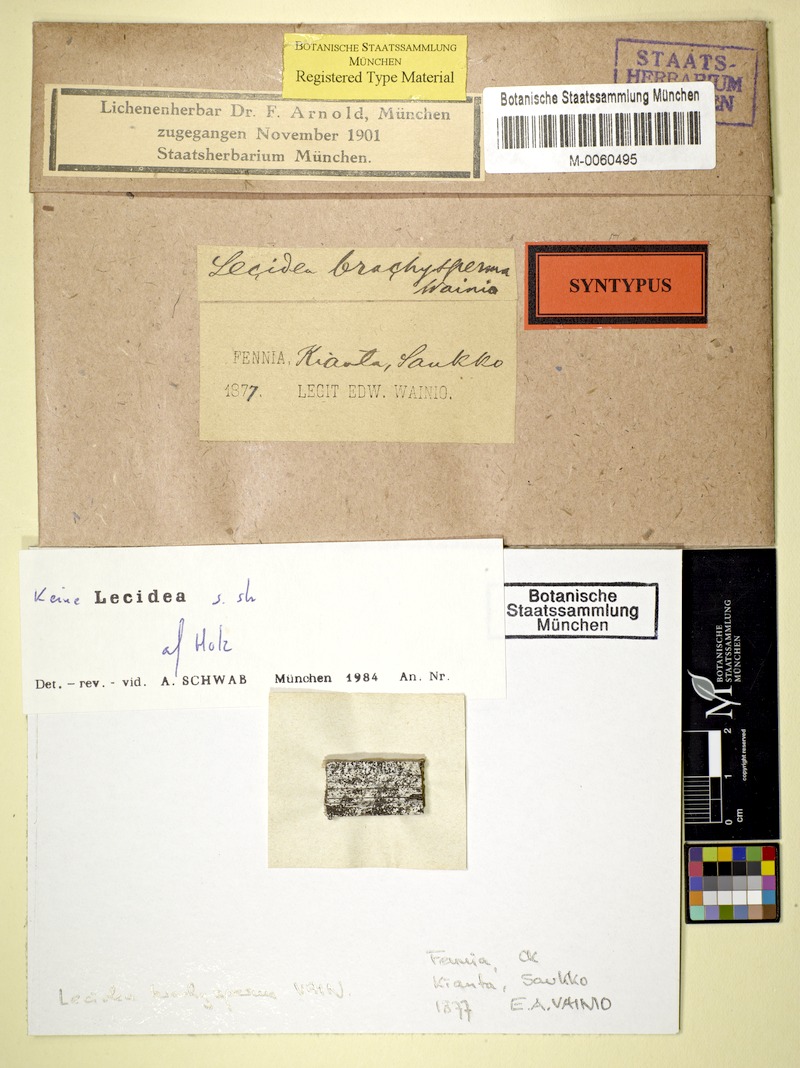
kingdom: Fungi
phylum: Ascomycota
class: Lecanoromycetes
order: Lecideales
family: Lecideaceae
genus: Lecidea
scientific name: Lecidea hypopta
